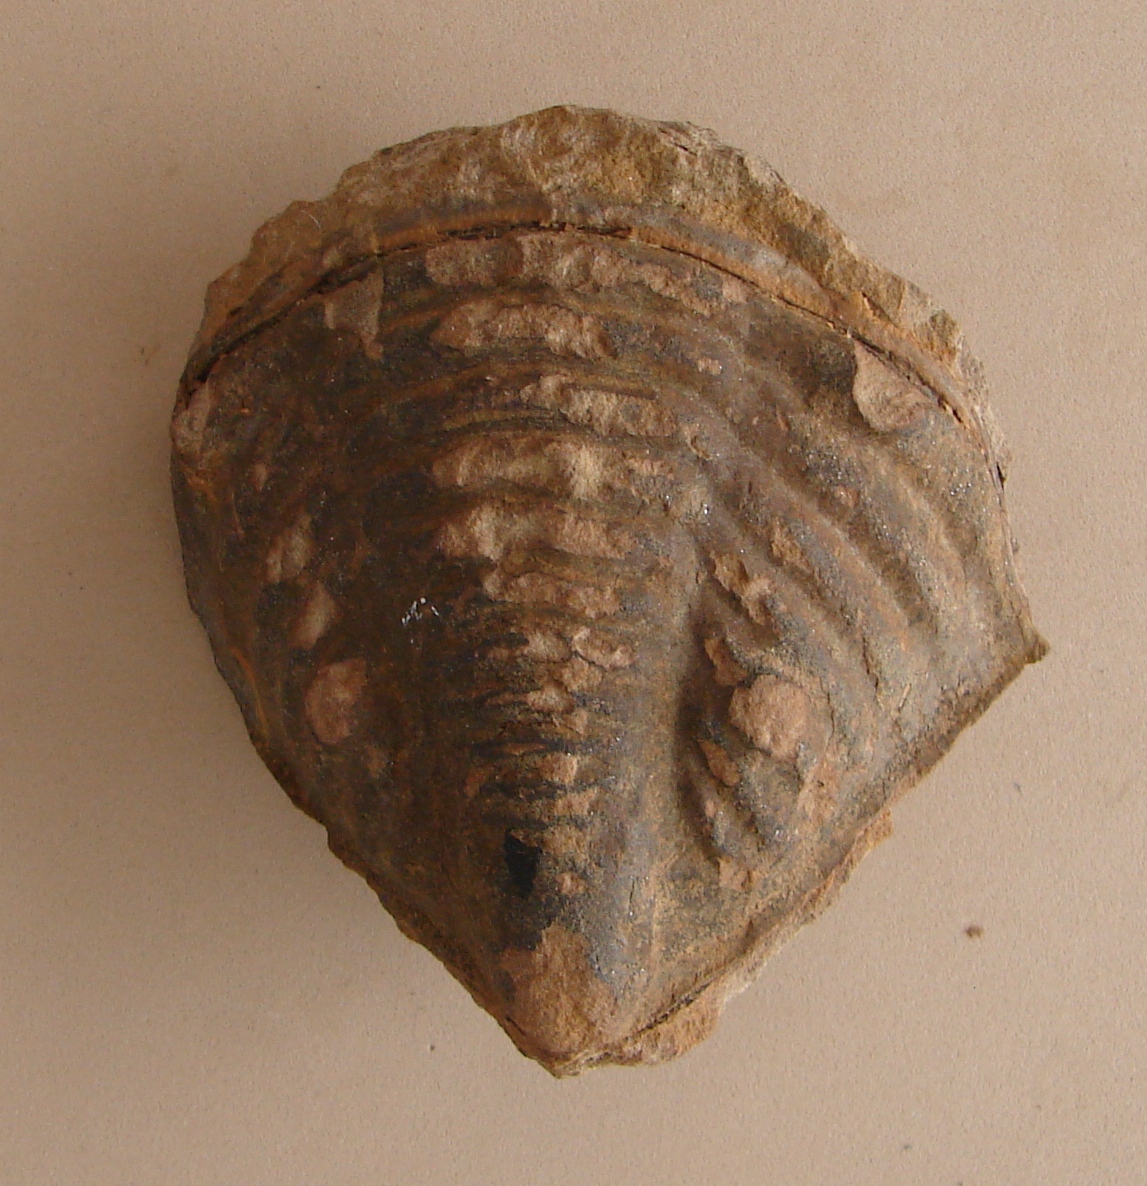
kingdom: Animalia
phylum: Arthropoda
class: Trilobita
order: Phacopida
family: Bathycheilidae
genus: Burmeisterella
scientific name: Burmeisterella
